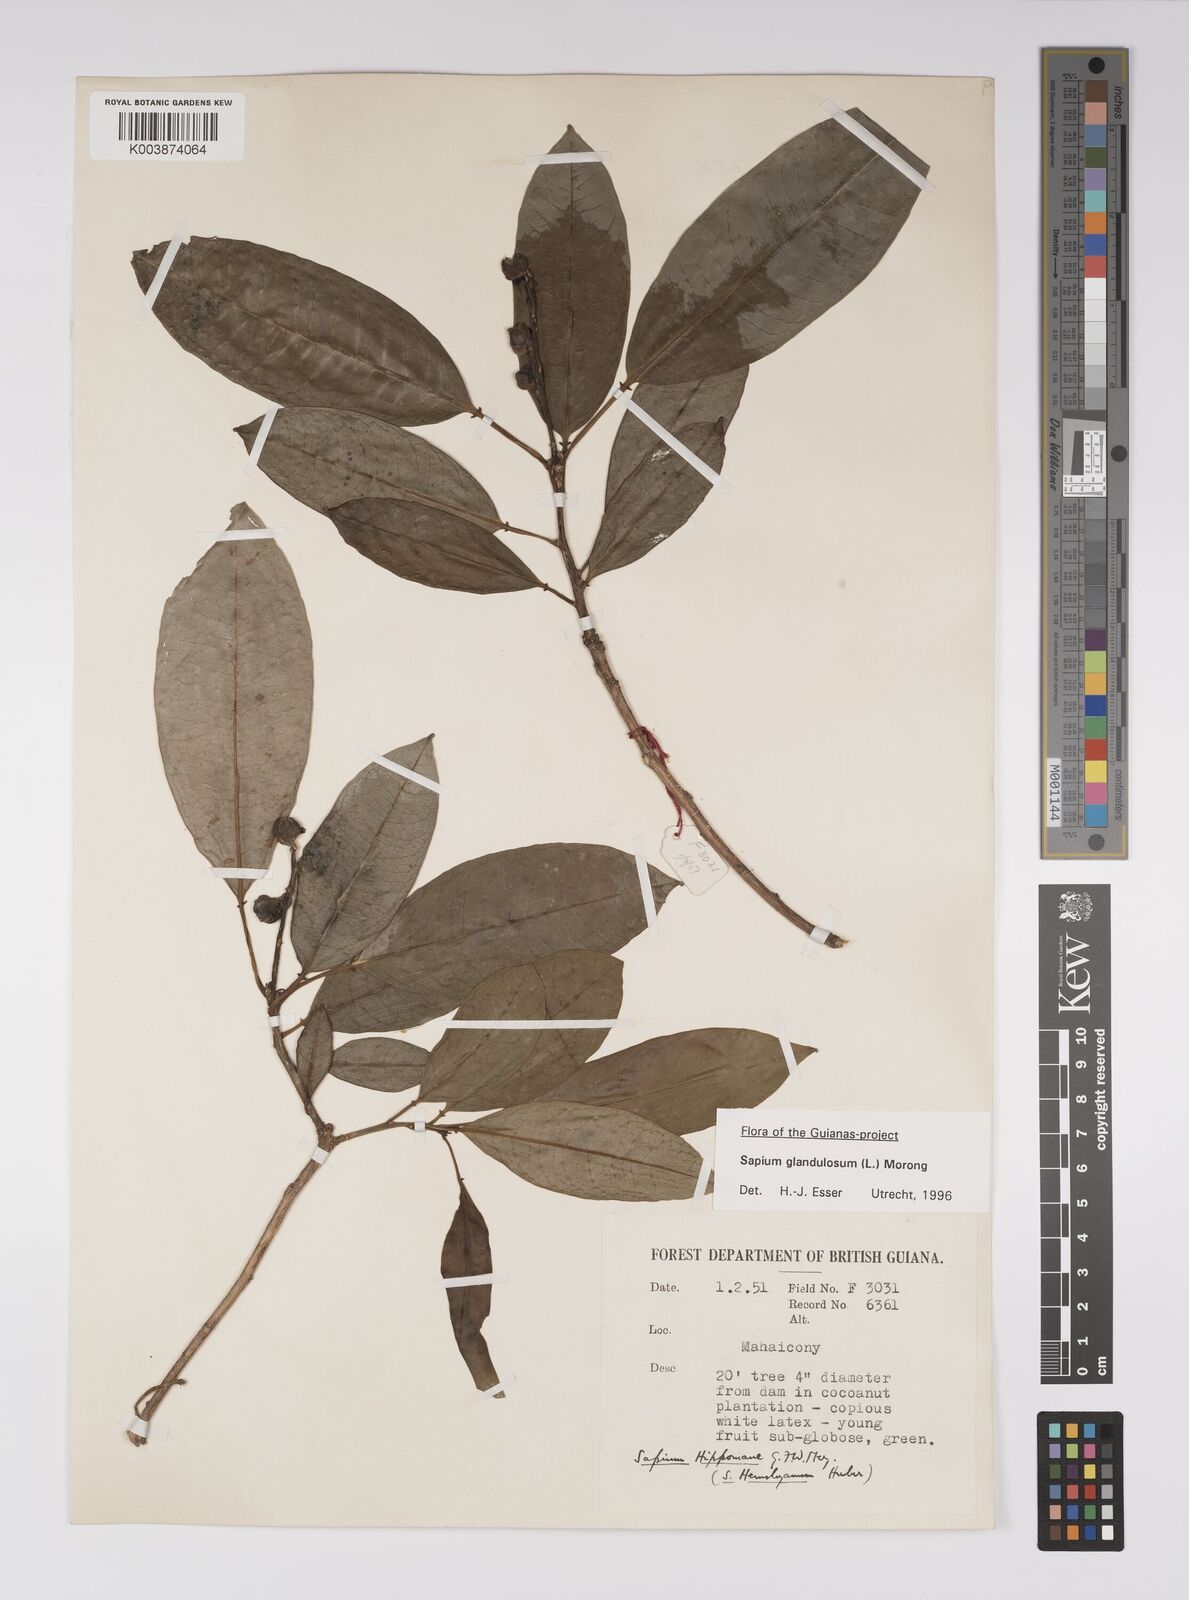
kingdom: Plantae
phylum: Tracheophyta
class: Magnoliopsida
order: Malpighiales
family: Euphorbiaceae
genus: Sapium
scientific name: Sapium glandulosum
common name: Milktree
